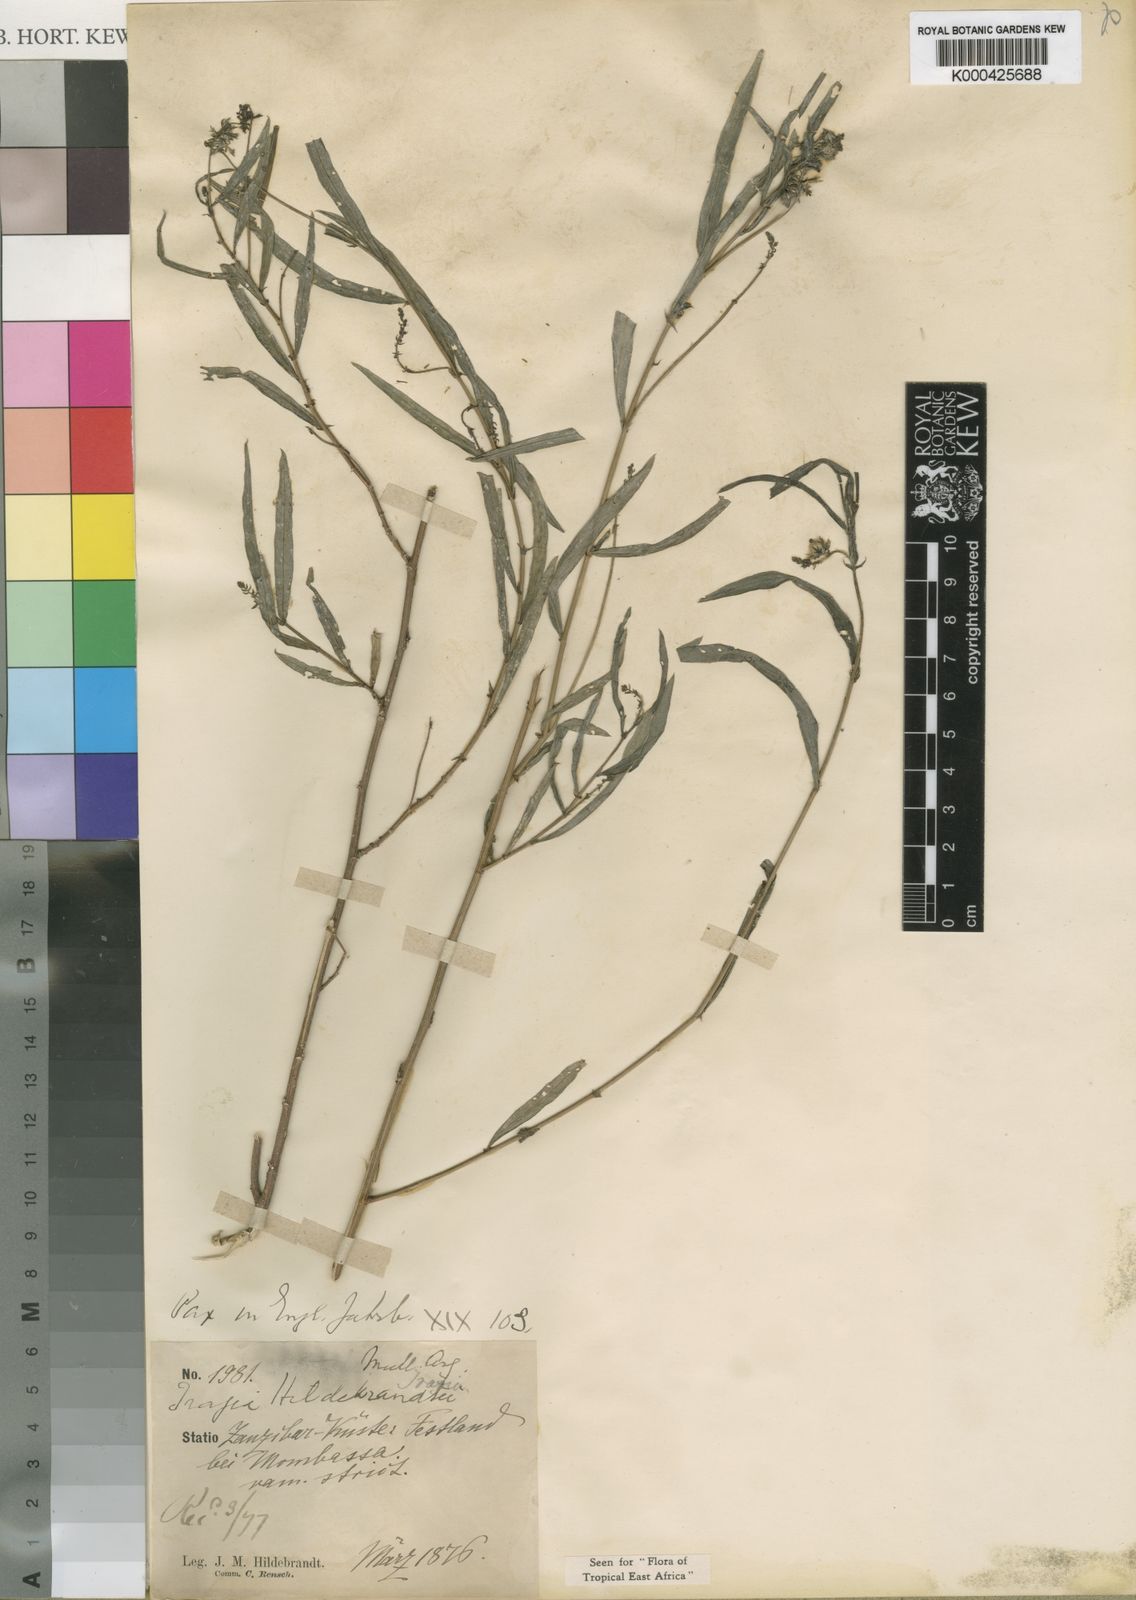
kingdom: Plantae
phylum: Tracheophyta
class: Magnoliopsida
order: Malpighiales
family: Euphorbiaceae
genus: Tragia
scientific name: Tragia
